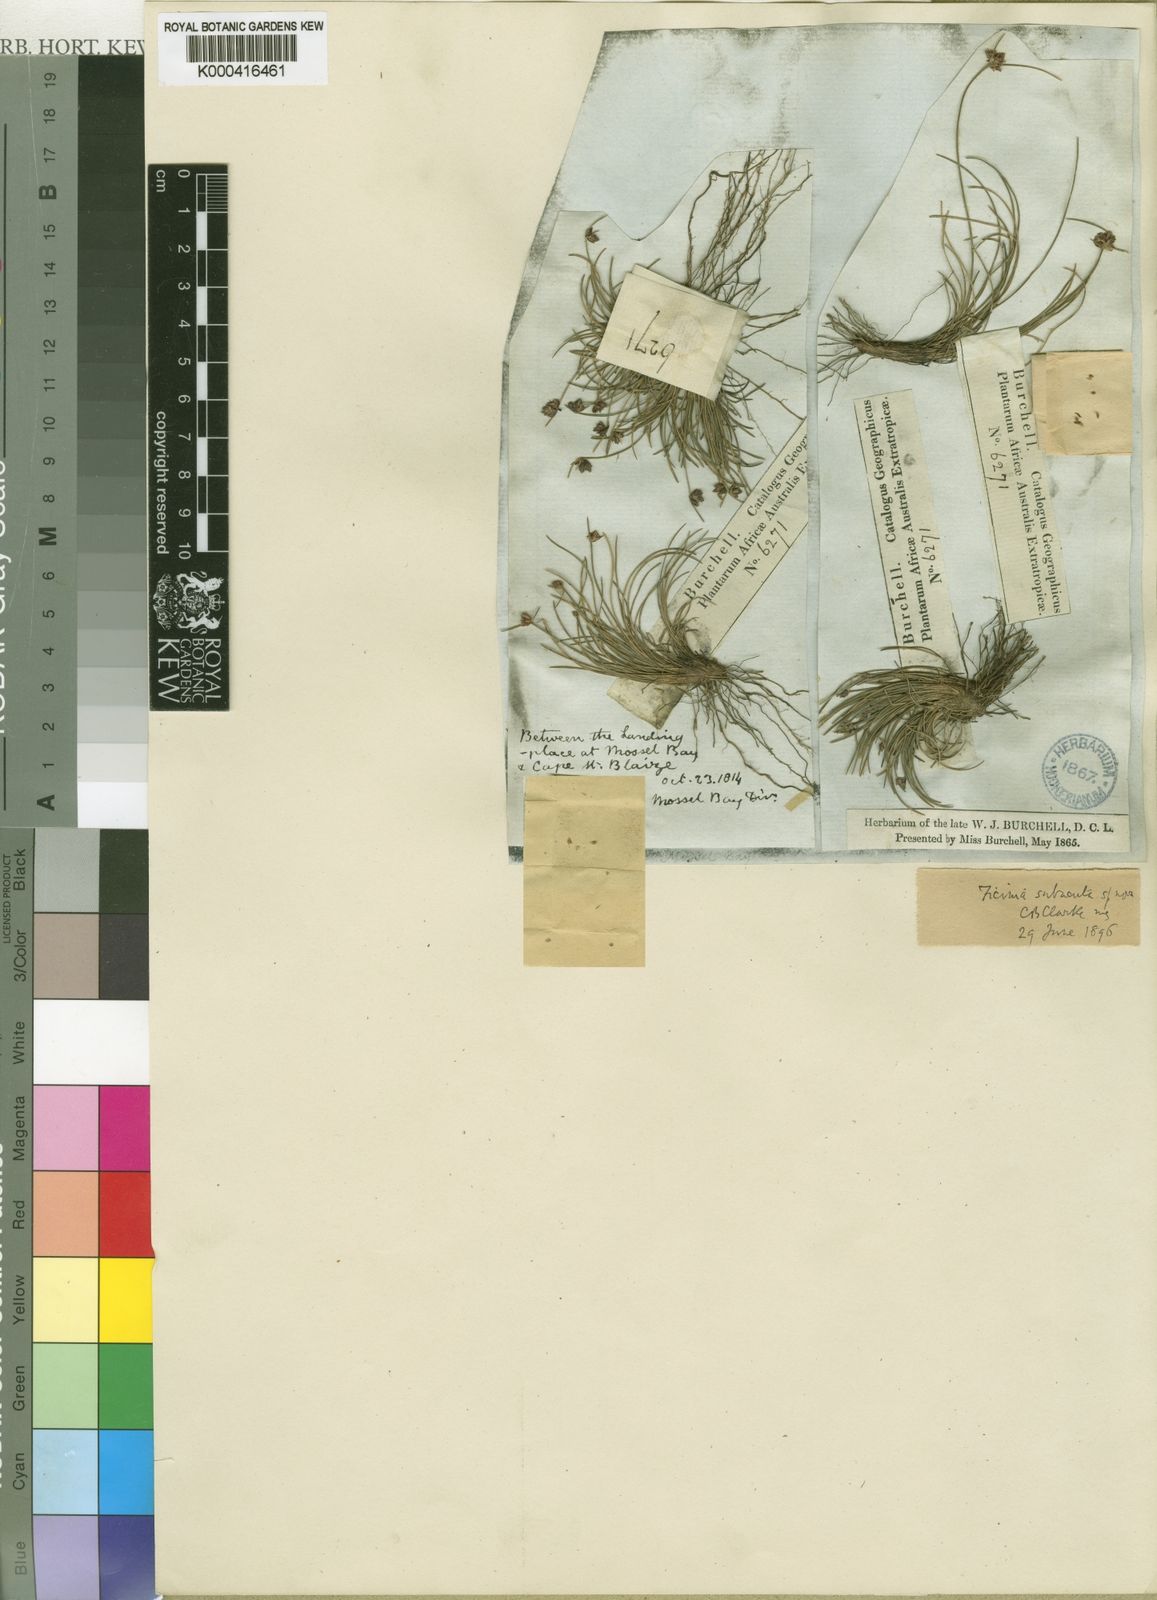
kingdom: Plantae
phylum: Tracheophyta
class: Liliopsida
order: Poales
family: Cyperaceae
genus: Ficinia
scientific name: Ficinia tristachya
